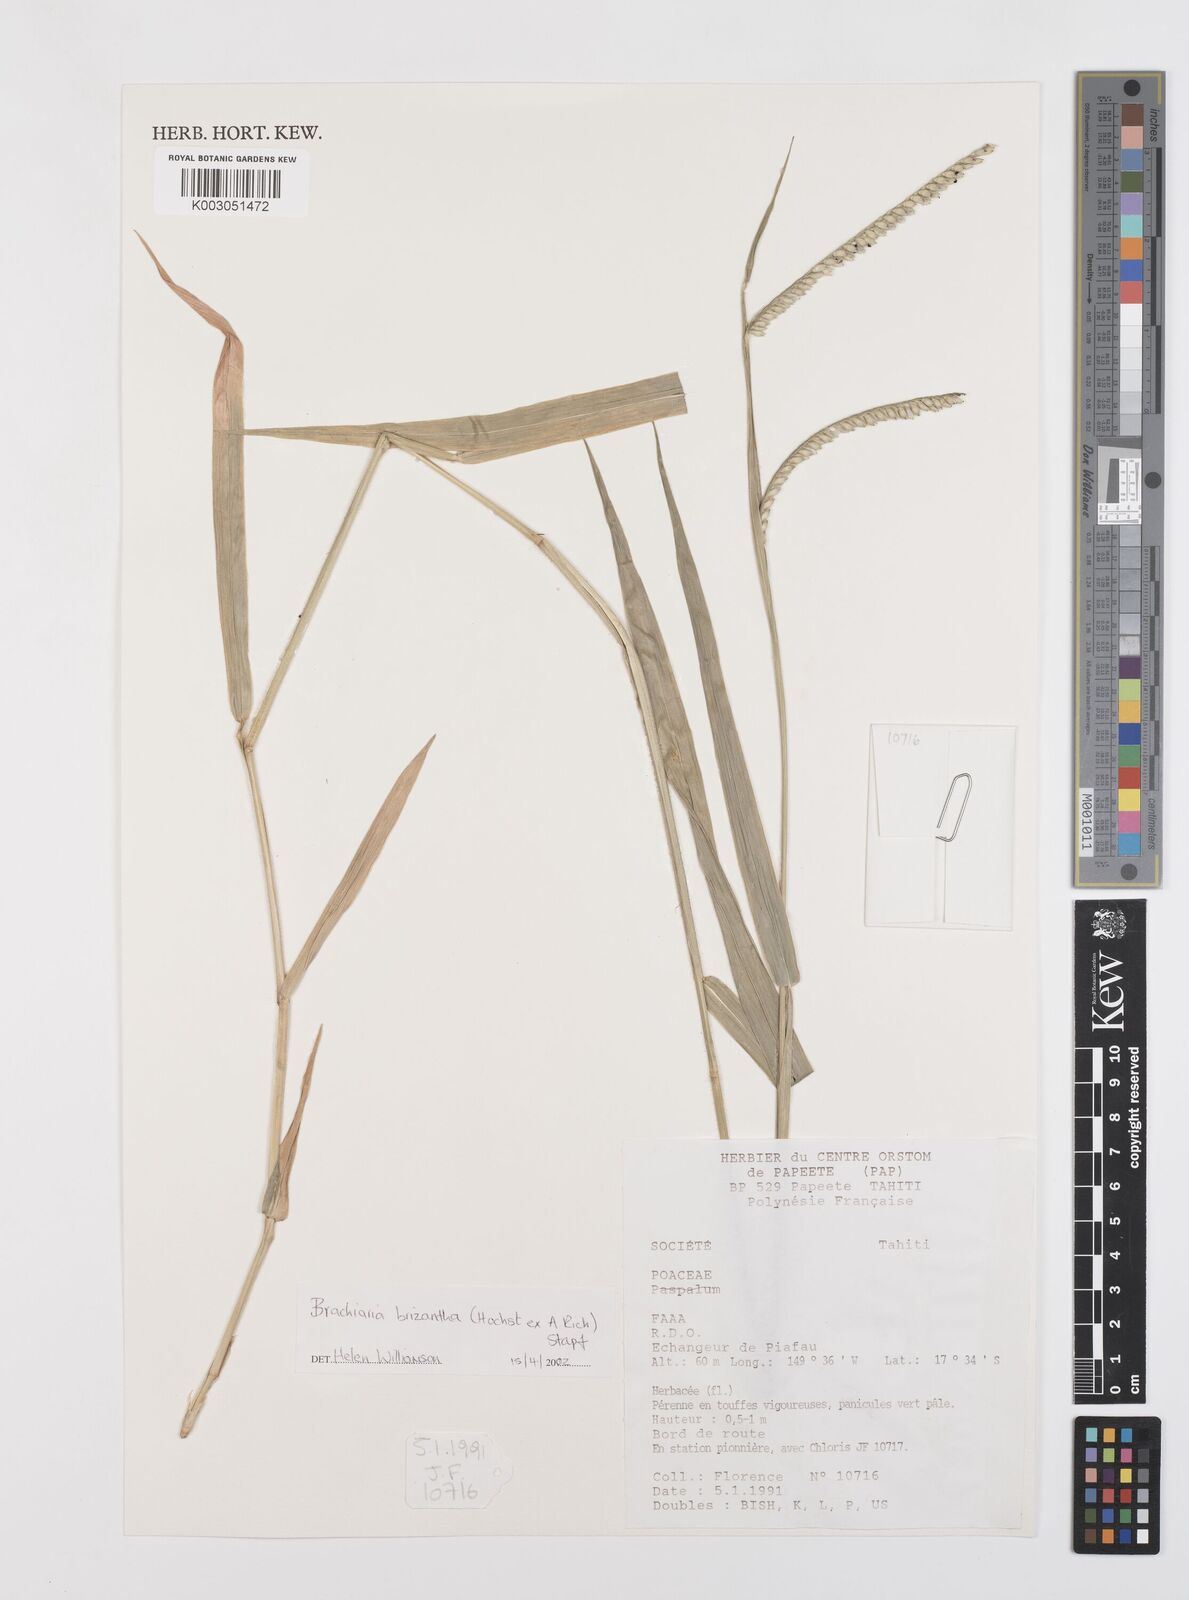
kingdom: Plantae
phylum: Tracheophyta
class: Liliopsida
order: Poales
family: Poaceae
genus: Urochloa
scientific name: Urochloa brizantha
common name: Palisade signalgrass
